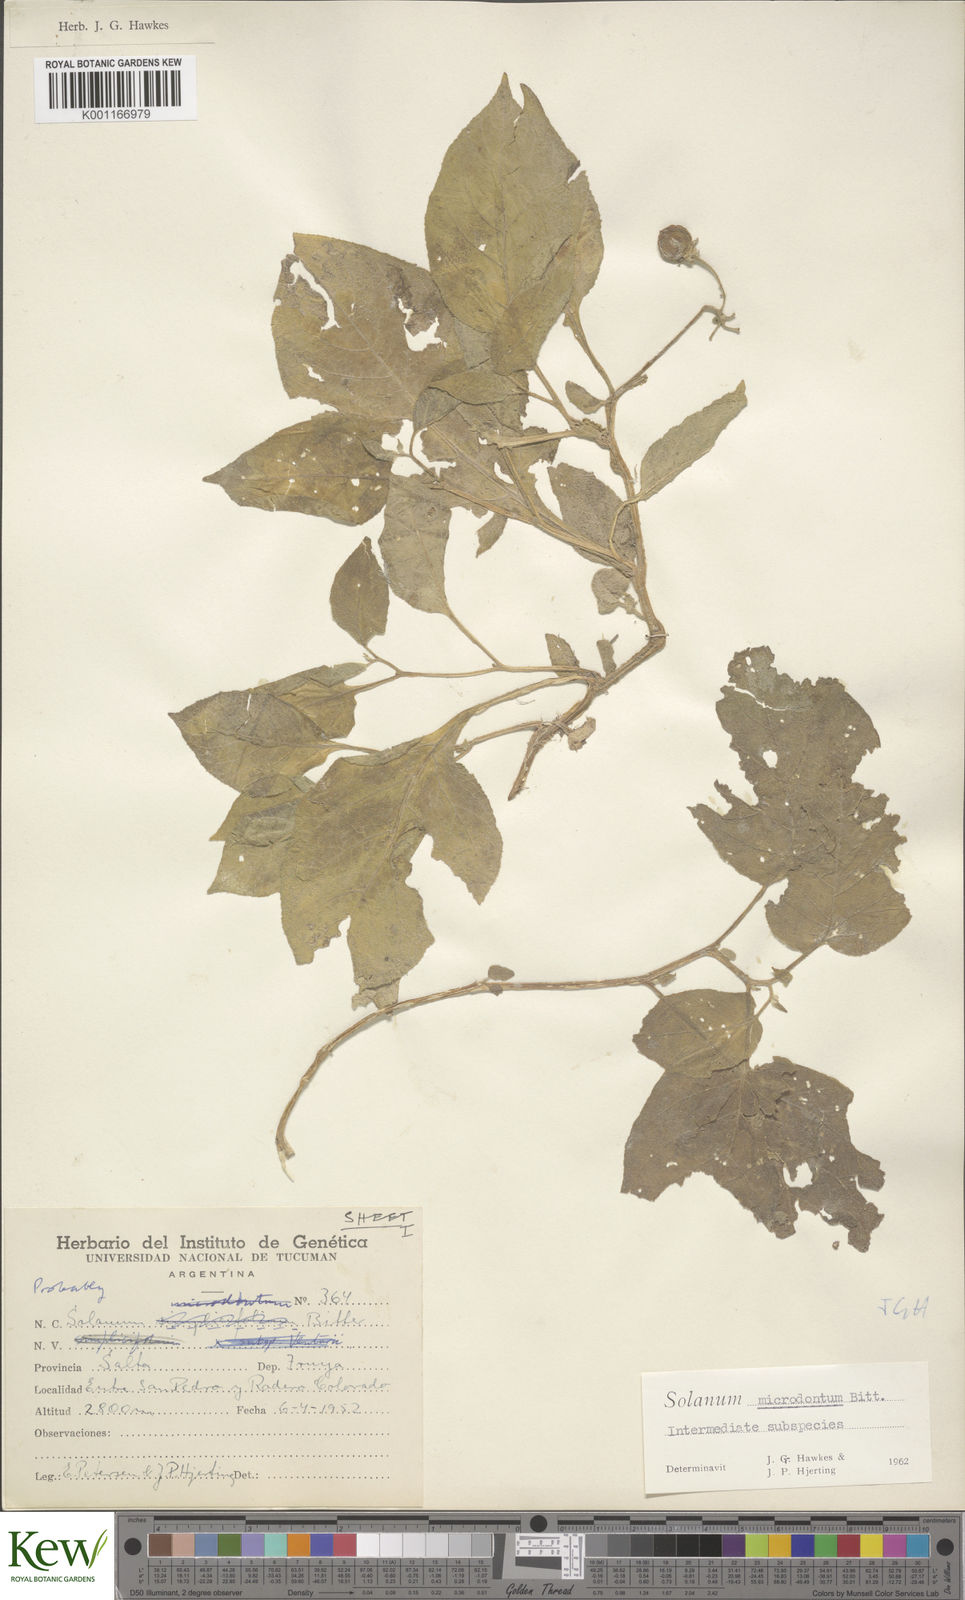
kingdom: Plantae
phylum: Tracheophyta
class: Magnoliopsida
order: Solanales
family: Solanaceae
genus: Solanum
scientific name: Solanum microdontum
